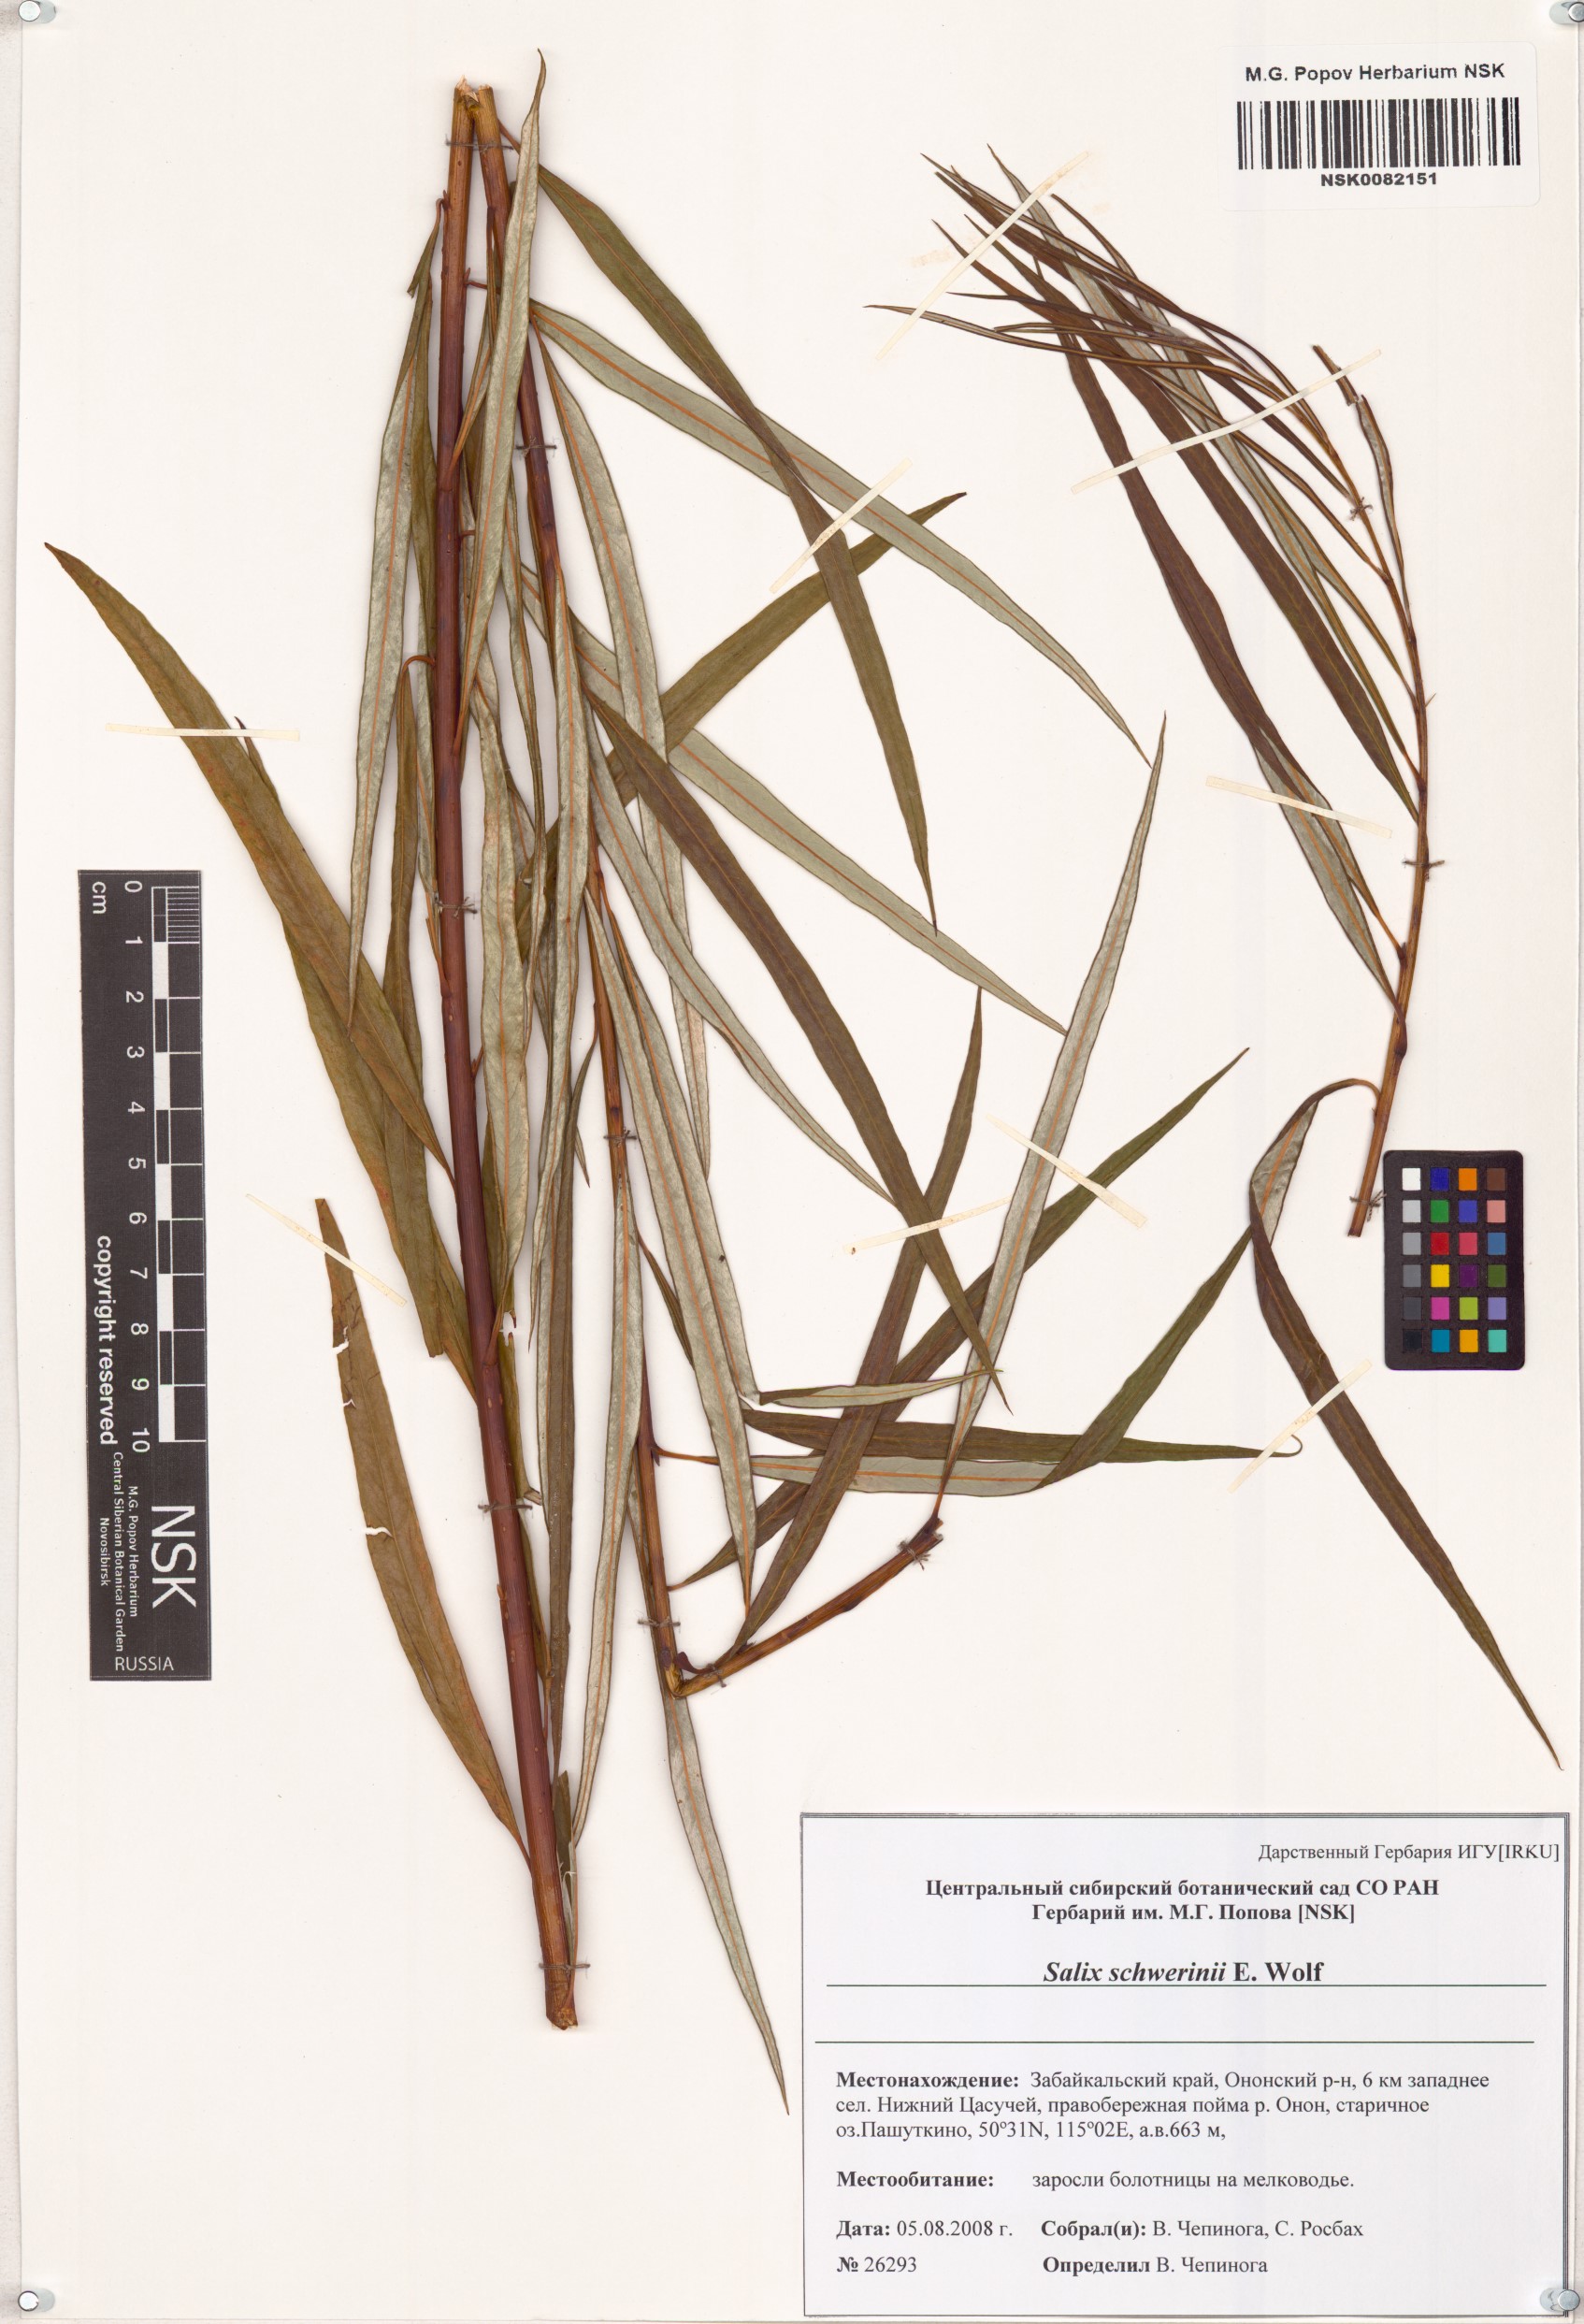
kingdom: Plantae
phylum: Tracheophyta
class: Magnoliopsida
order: Malpighiales
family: Salicaceae
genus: Salix
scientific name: Salix schwerinii
